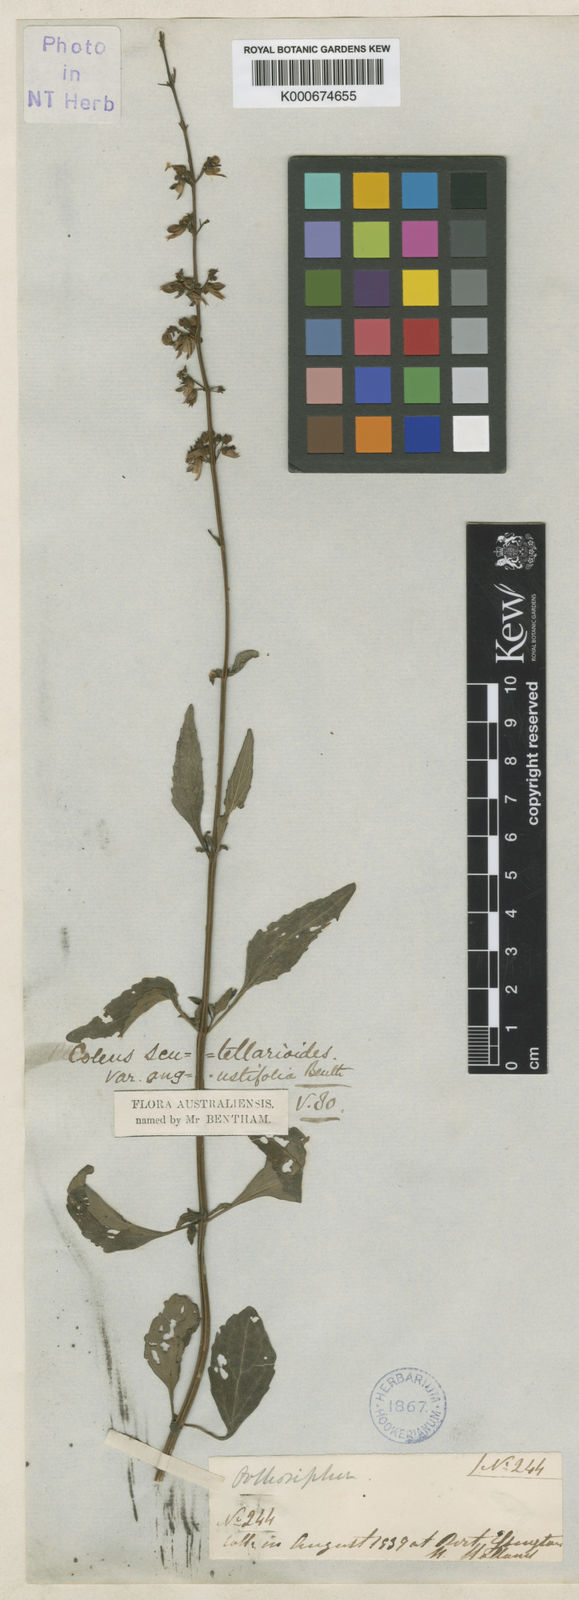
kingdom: Plantae
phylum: Tracheophyta
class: Magnoliopsida
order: Lamiales
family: Lamiaceae
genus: Coleus
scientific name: Coleus scutellarioides
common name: Coleus
